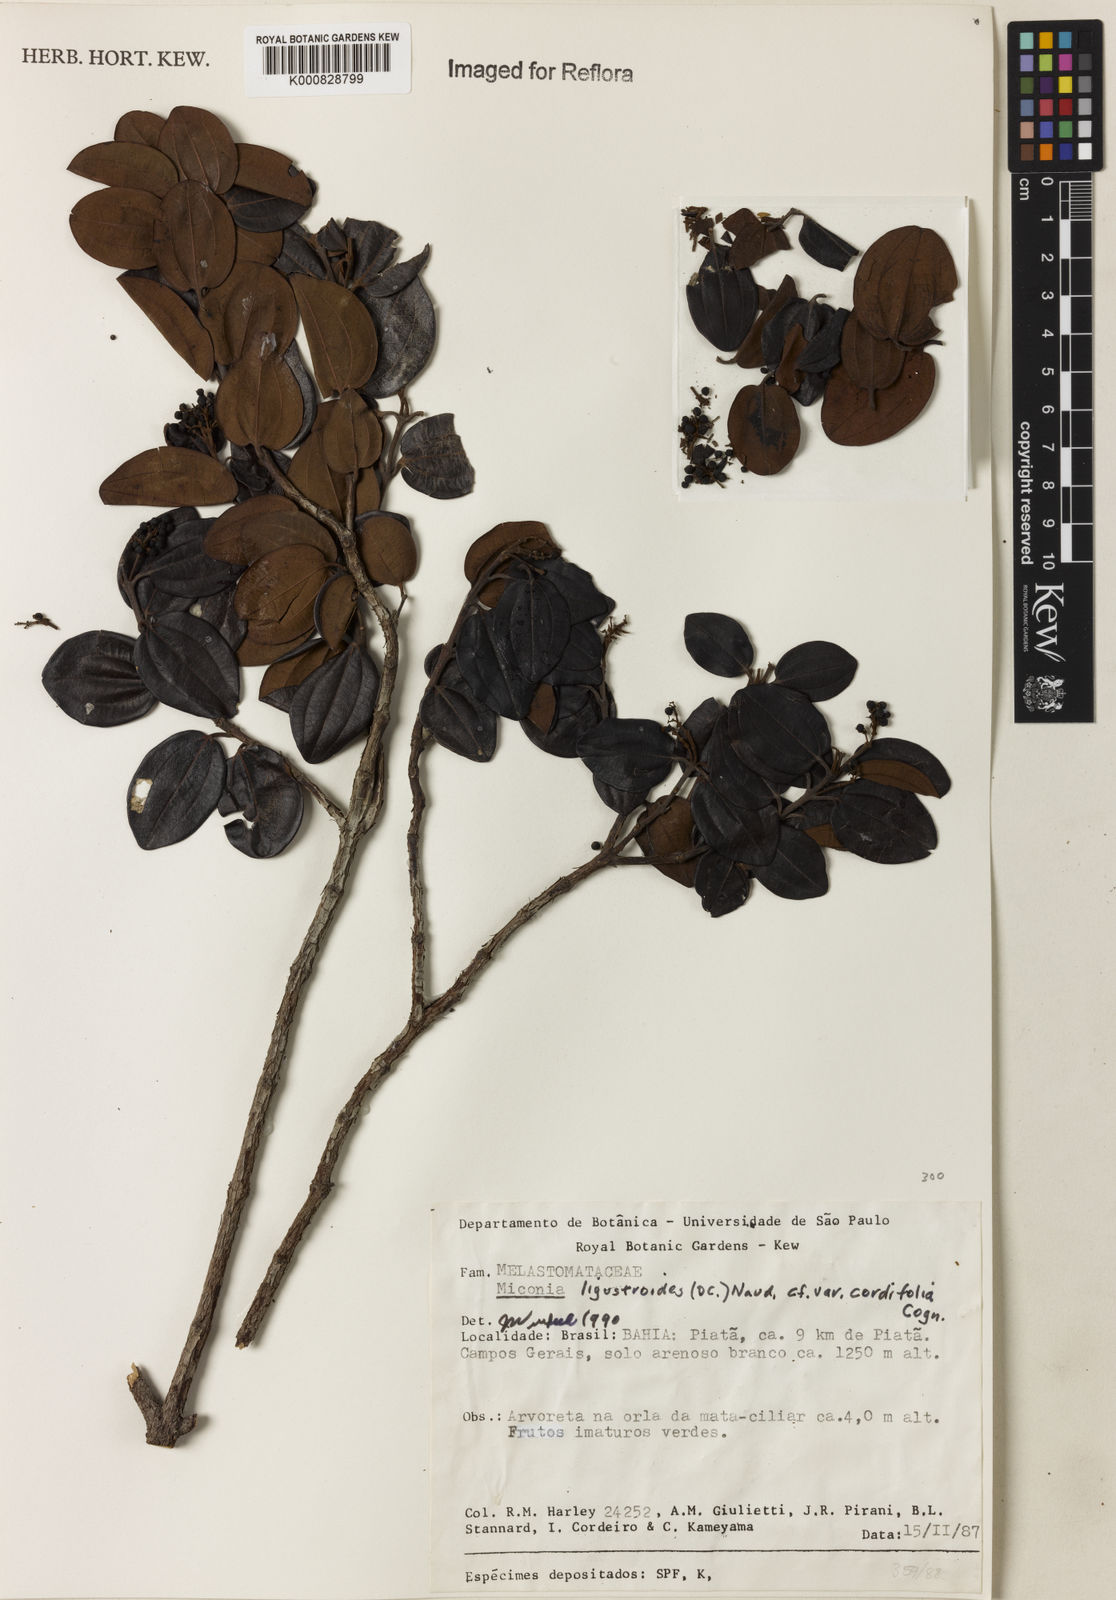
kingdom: Plantae
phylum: Tracheophyta
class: Magnoliopsida
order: Myrtales
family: Melastomataceae
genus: Miconia
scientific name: Miconia ligustroides
